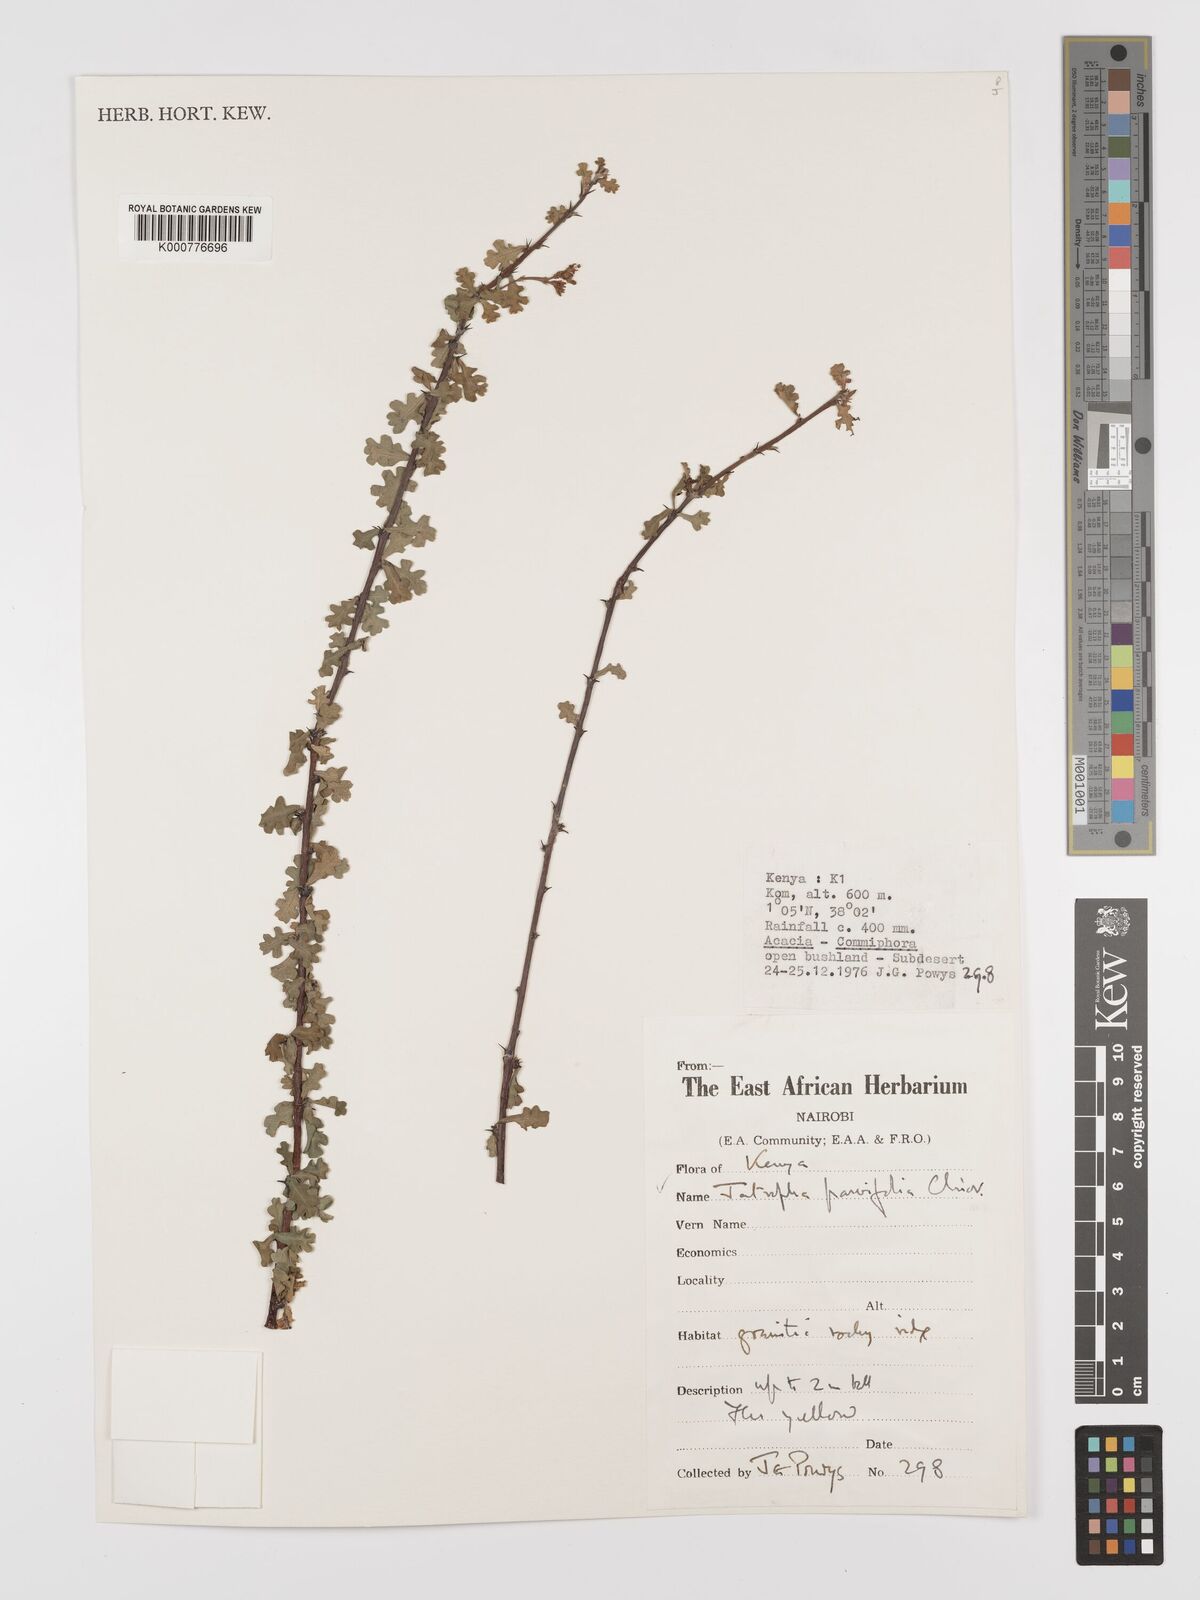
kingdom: Plantae
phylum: Tracheophyta
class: Magnoliopsida
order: Malpighiales
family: Euphorbiaceae
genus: Jatropha
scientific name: Jatropha rivae
